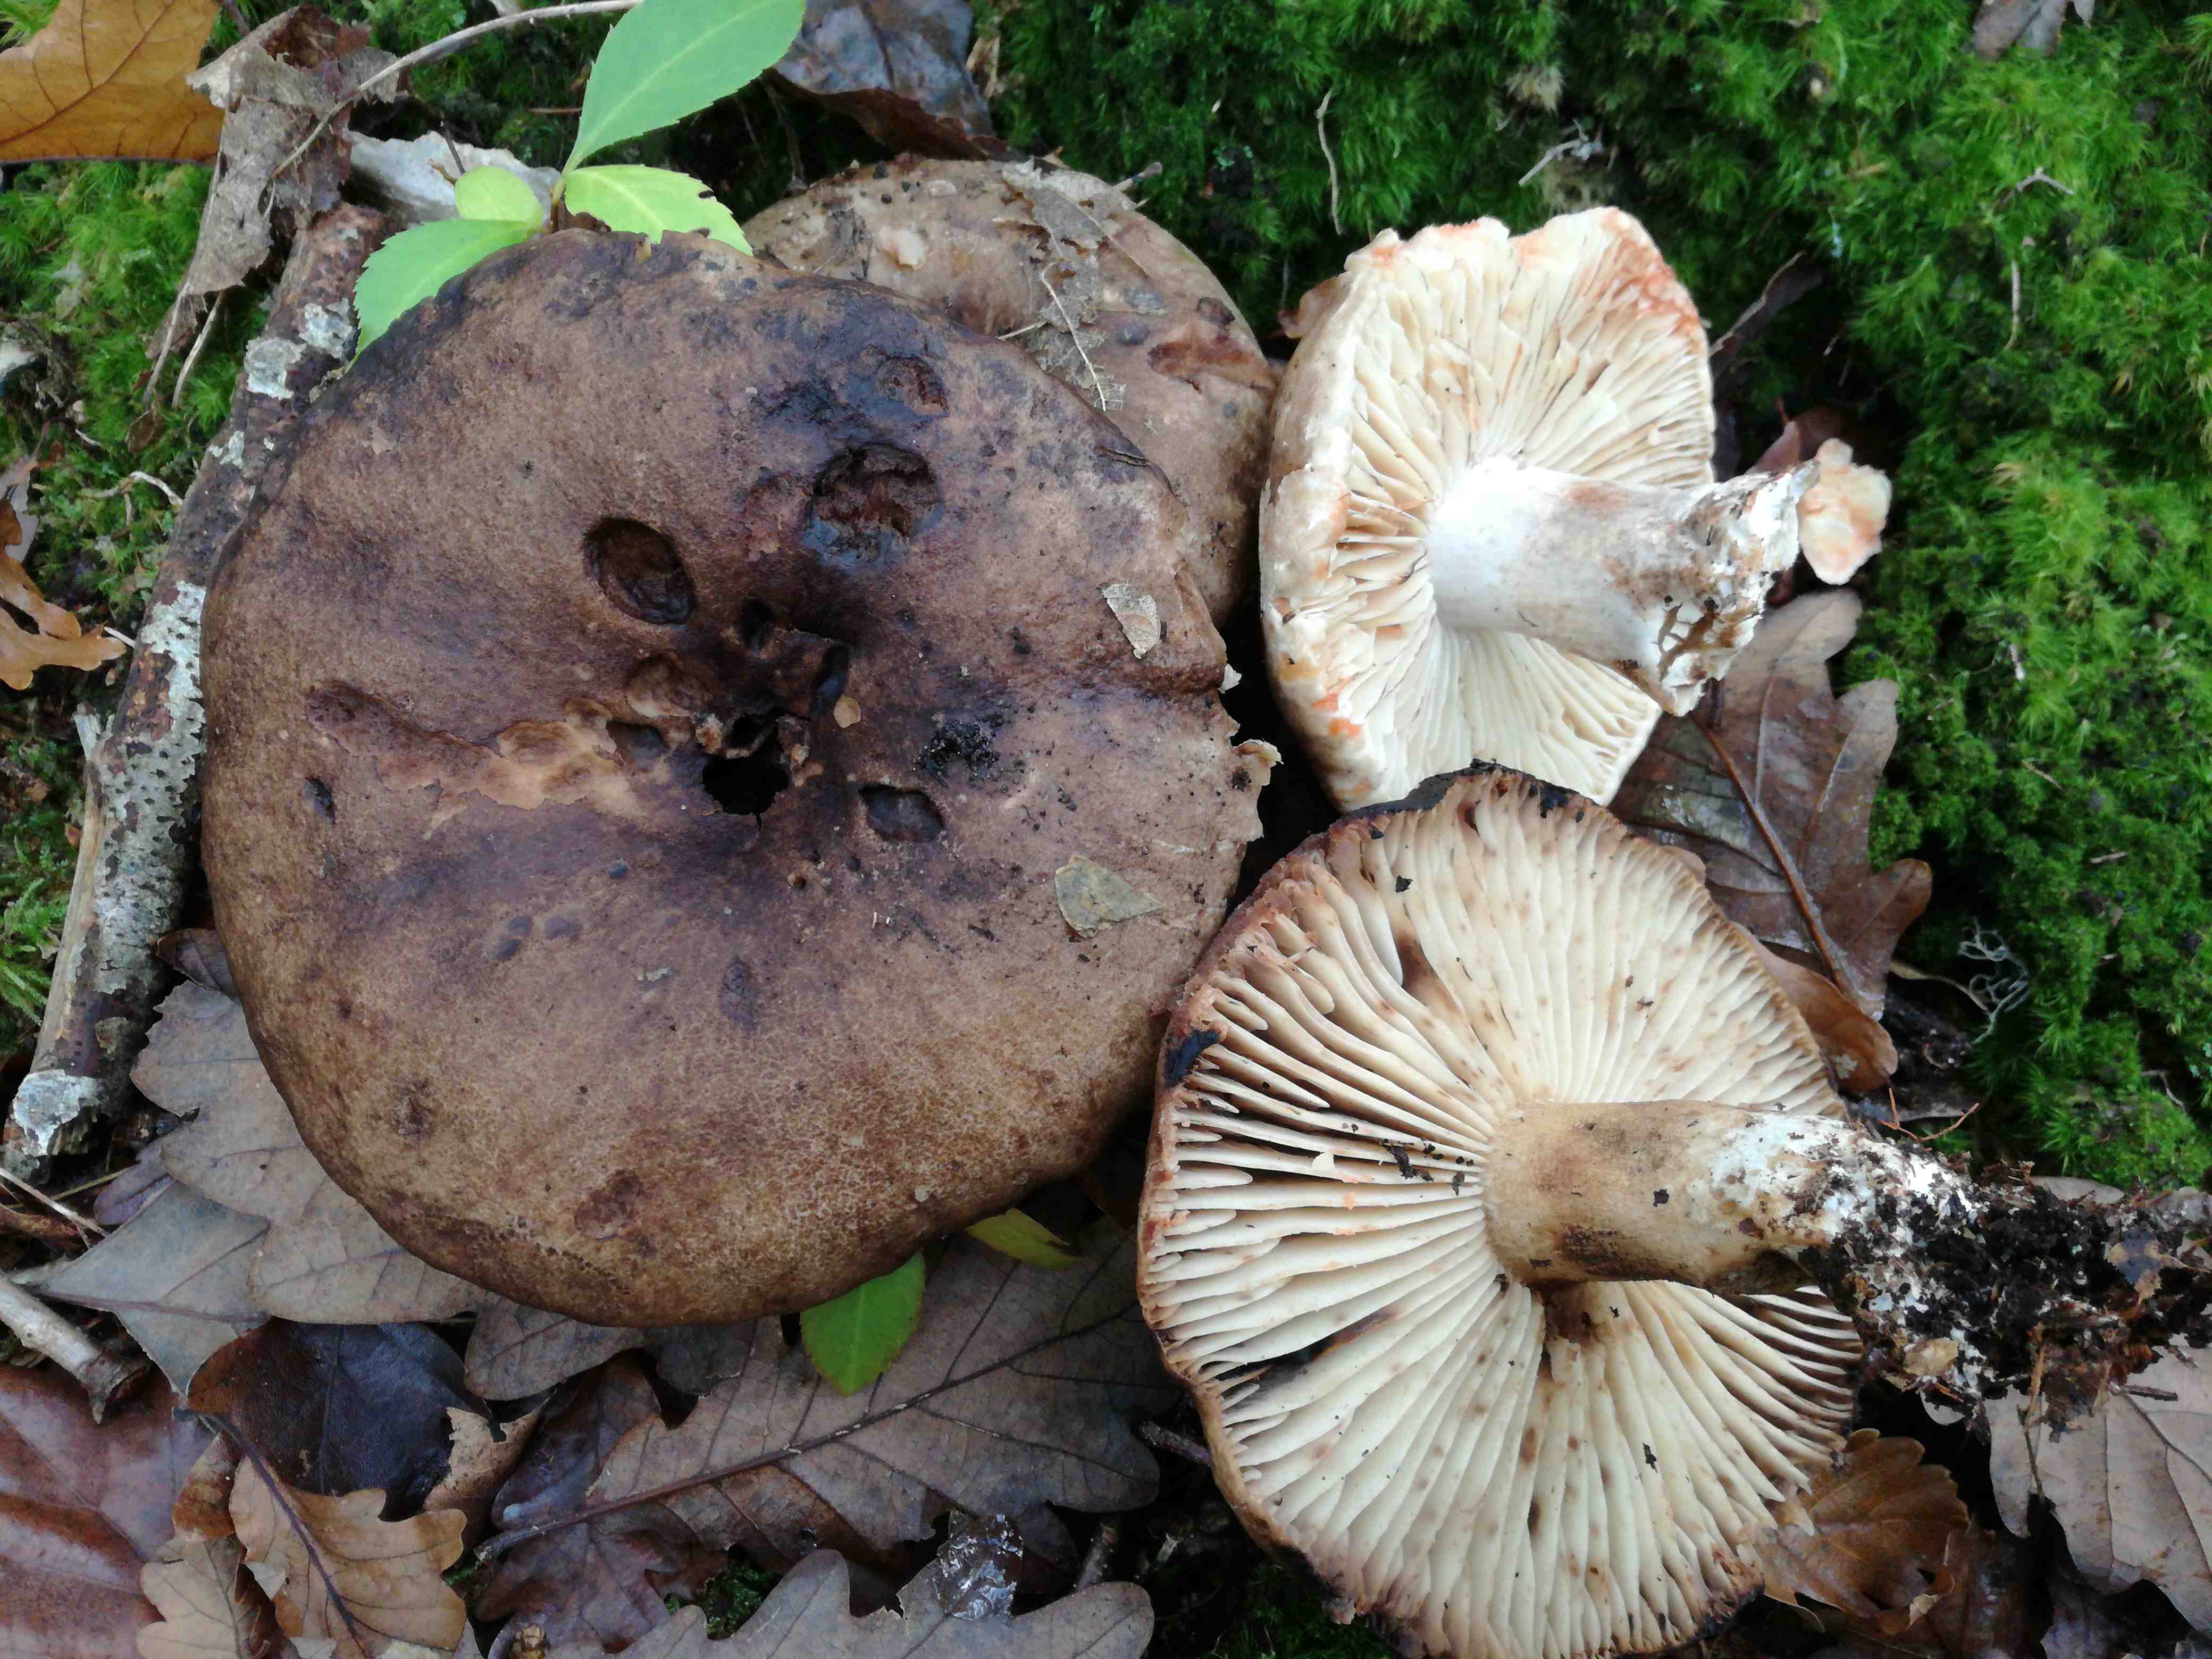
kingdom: Fungi
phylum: Basidiomycota
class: Agaricomycetes
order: Russulales
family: Russulaceae
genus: Russula
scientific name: Russula adusta
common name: sværtende skørhat
